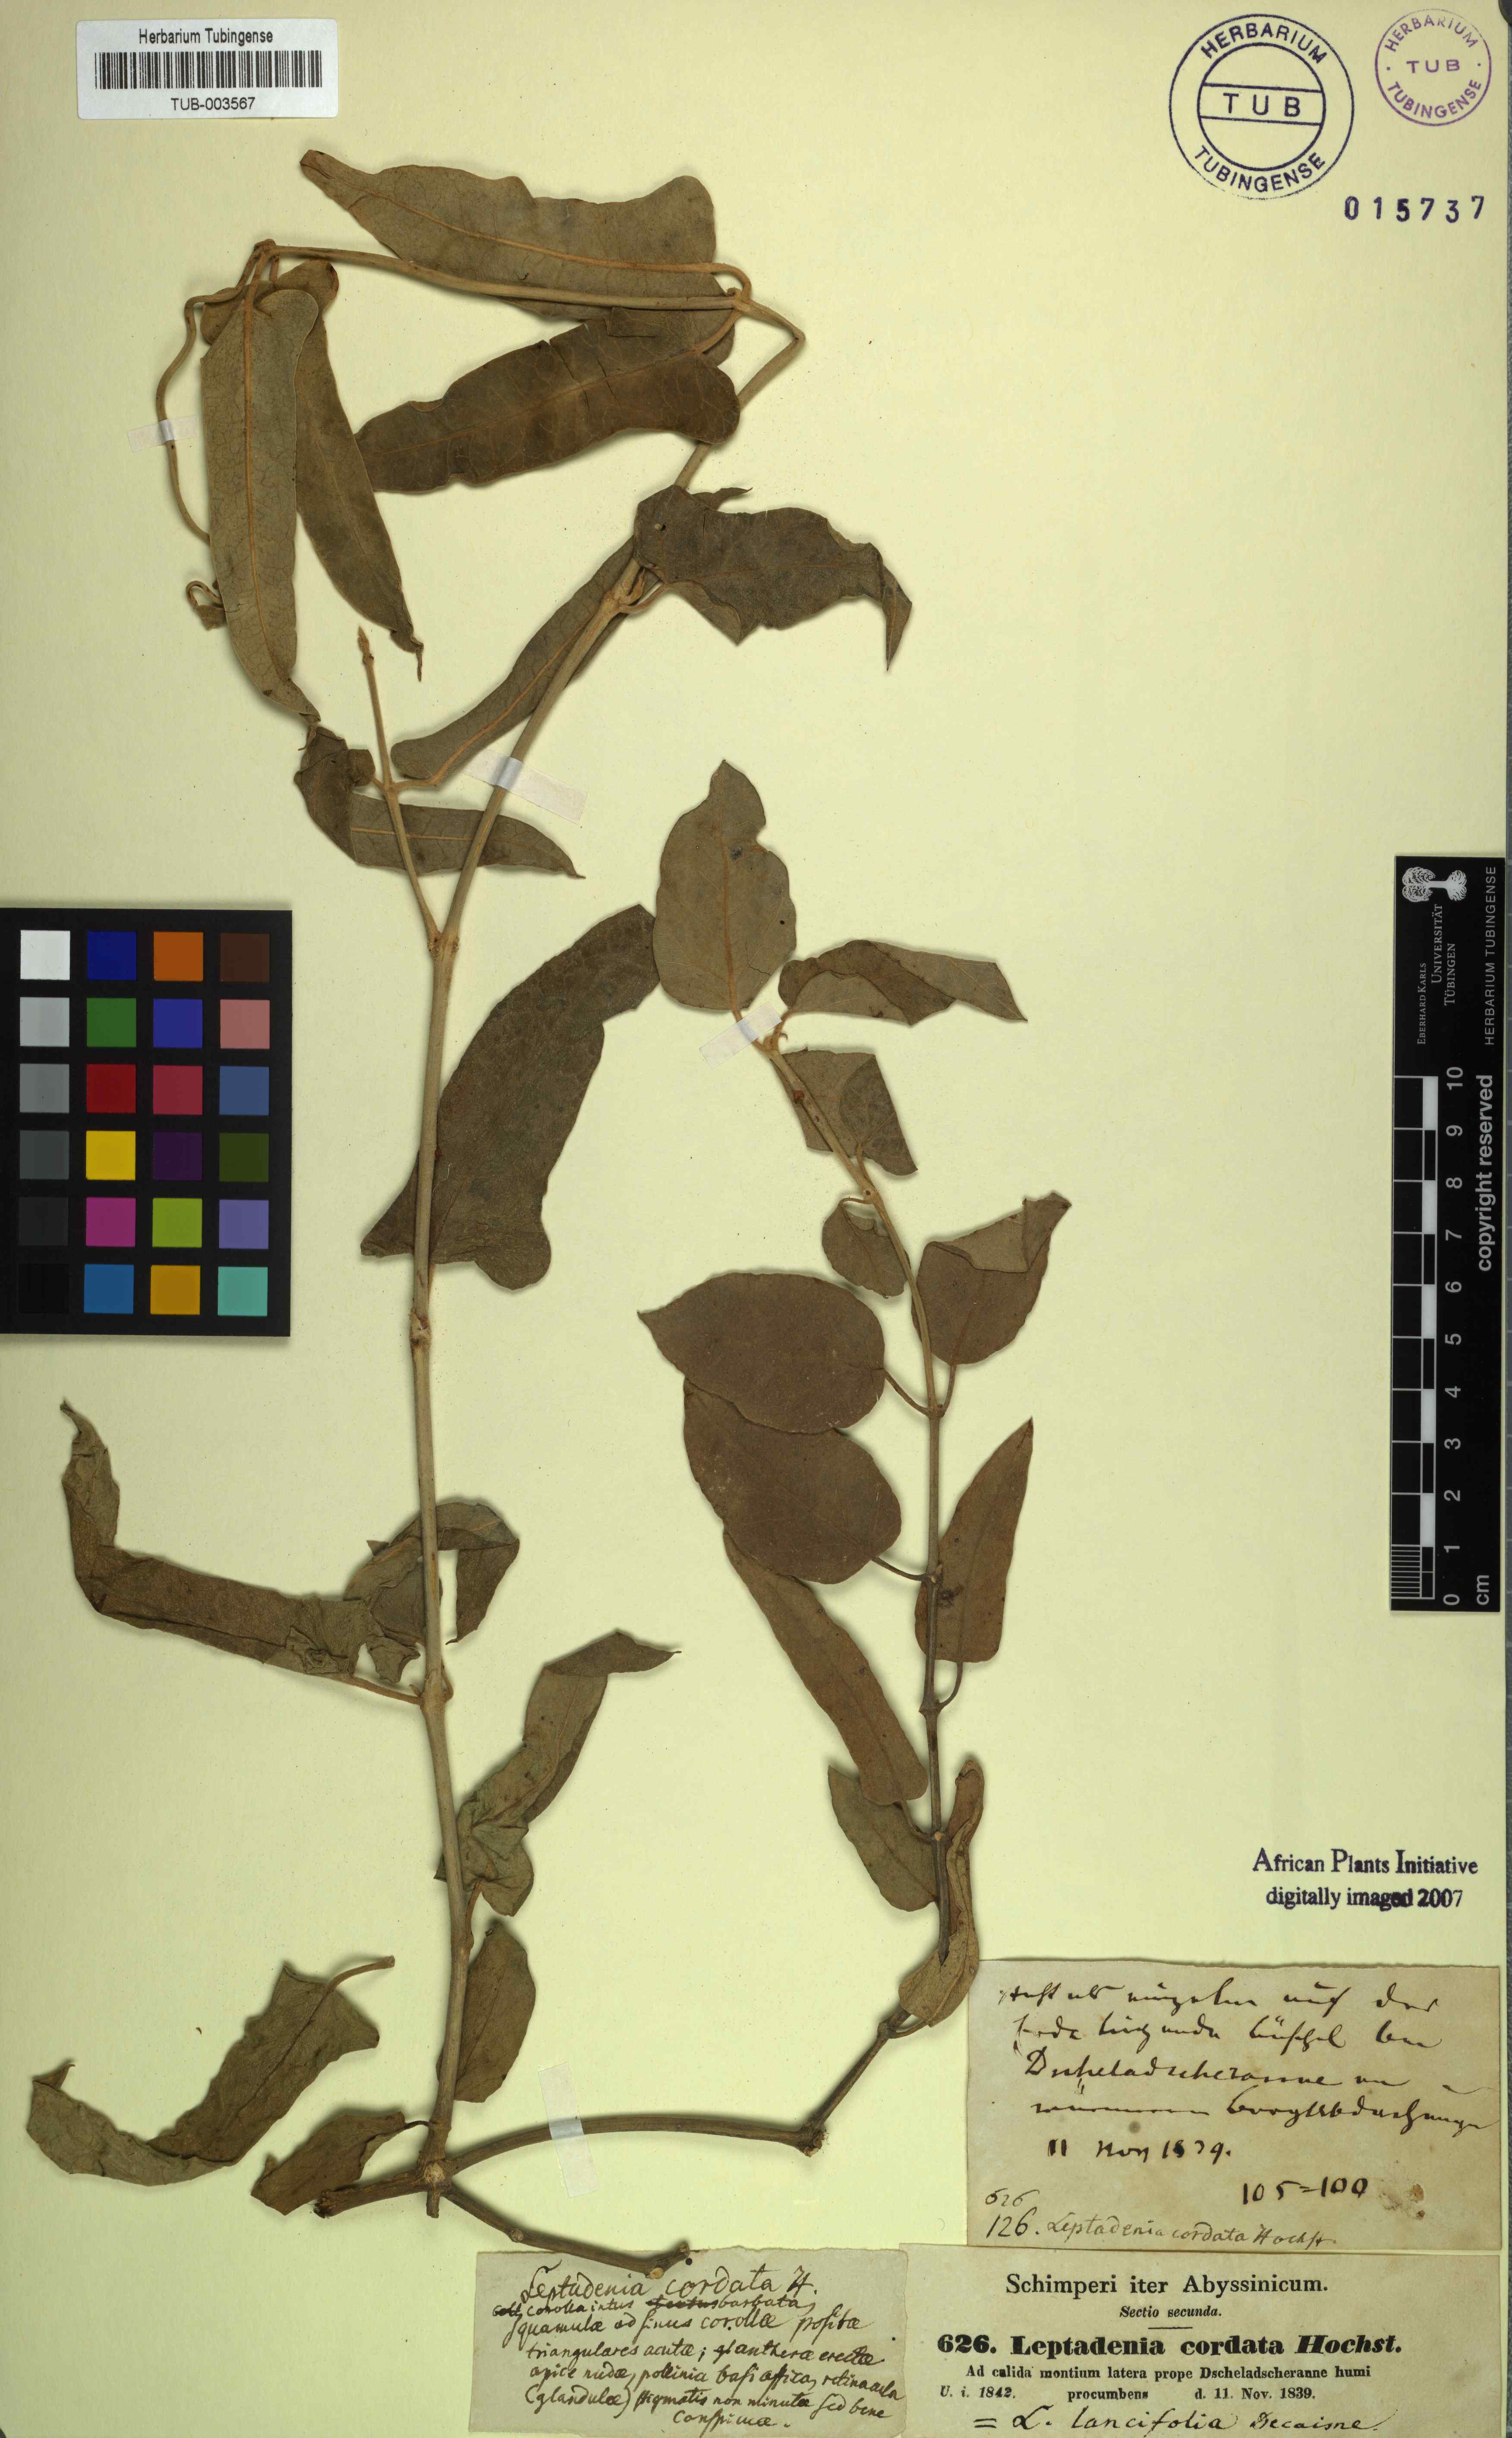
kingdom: Plantae
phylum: Tracheophyta
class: Magnoliopsida
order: Gentianales
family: Apocynaceae
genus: Leptadenia
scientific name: Leptadenia lanceolata
